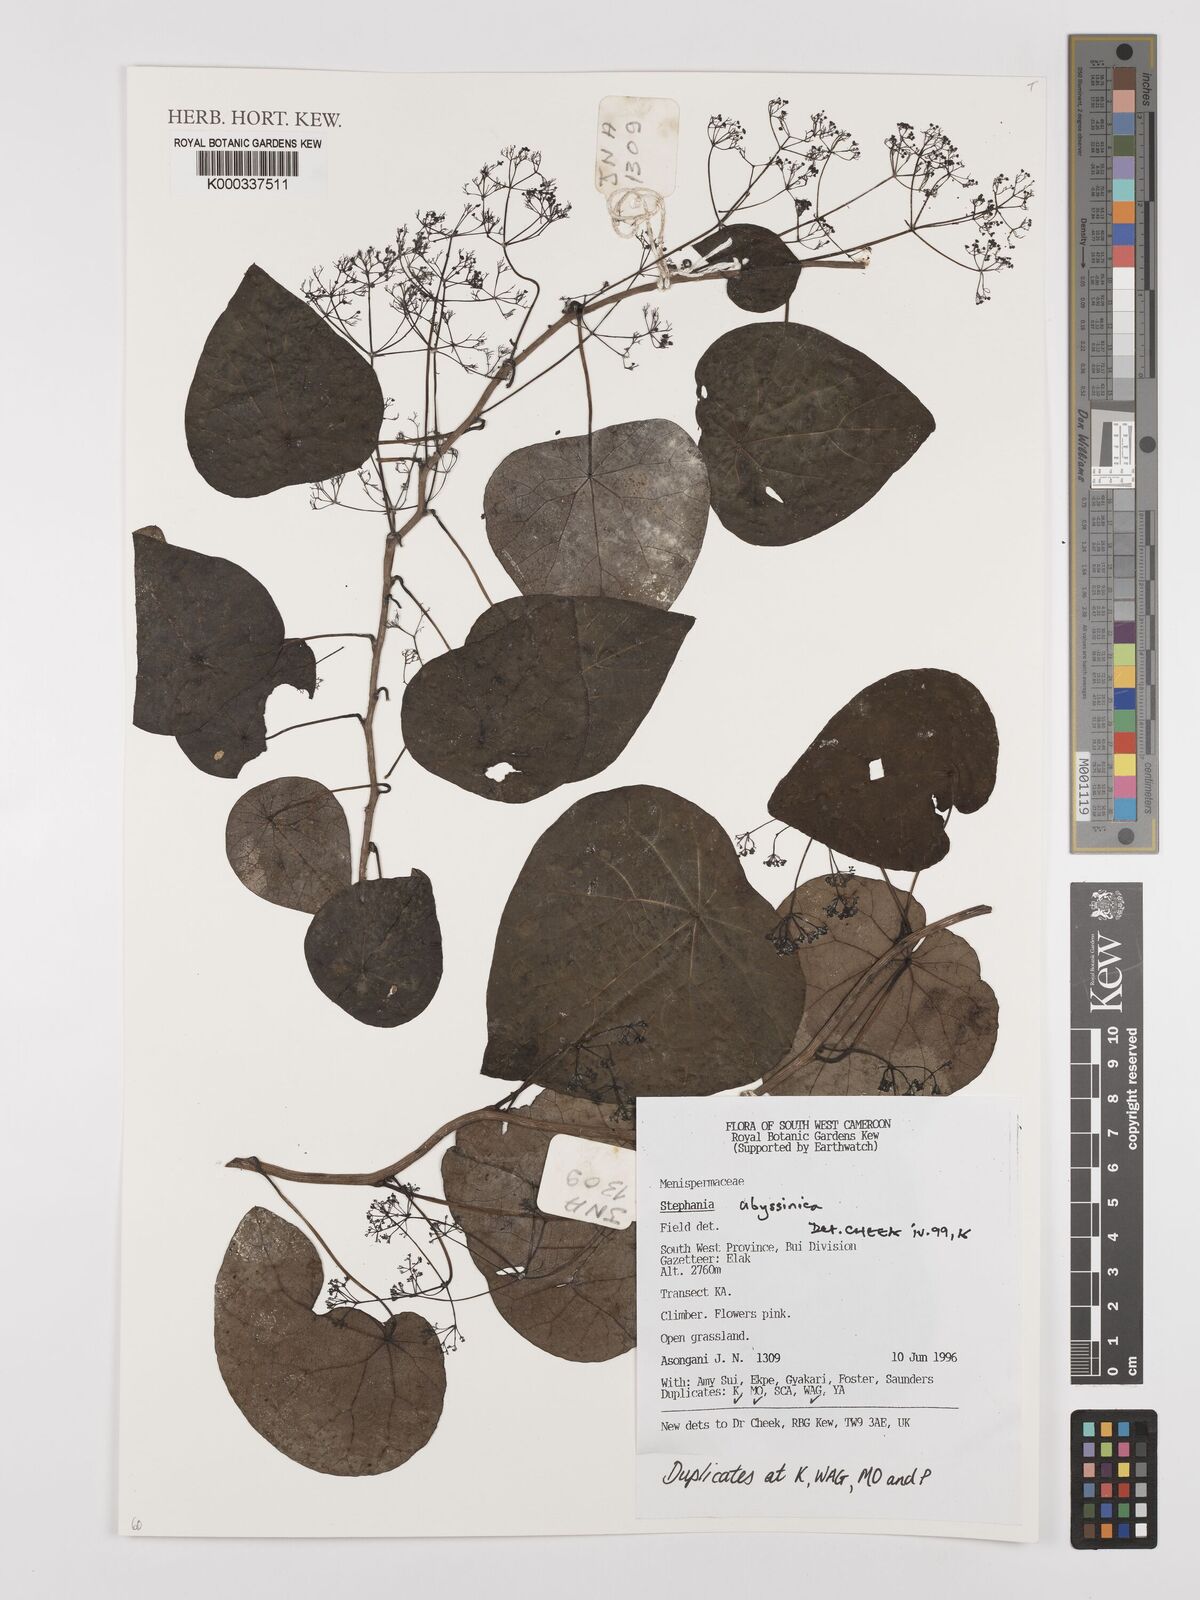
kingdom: Plantae
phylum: Tracheophyta
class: Magnoliopsida
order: Ranunculales
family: Menispermaceae
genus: Stephania
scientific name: Stephania
